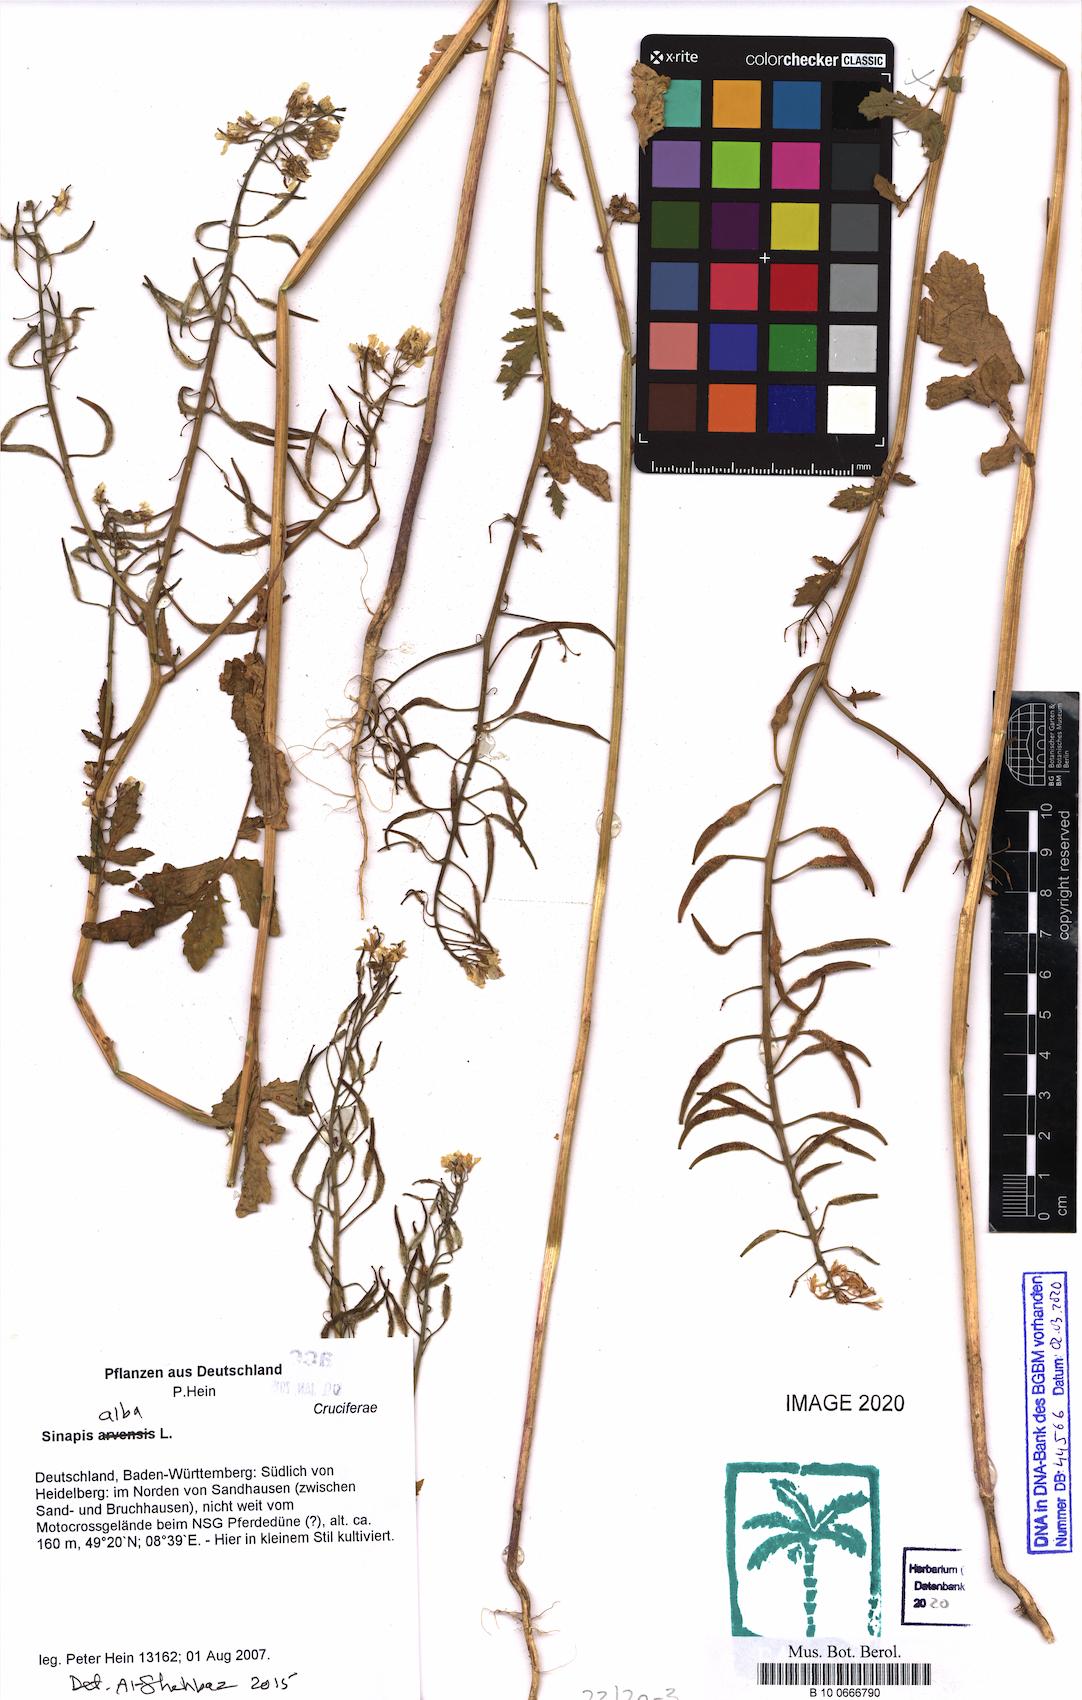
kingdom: Plantae
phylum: Tracheophyta
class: Magnoliopsida
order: Brassicales
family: Brassicaceae
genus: Sinapis
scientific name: Sinapis alba
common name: White mustard
